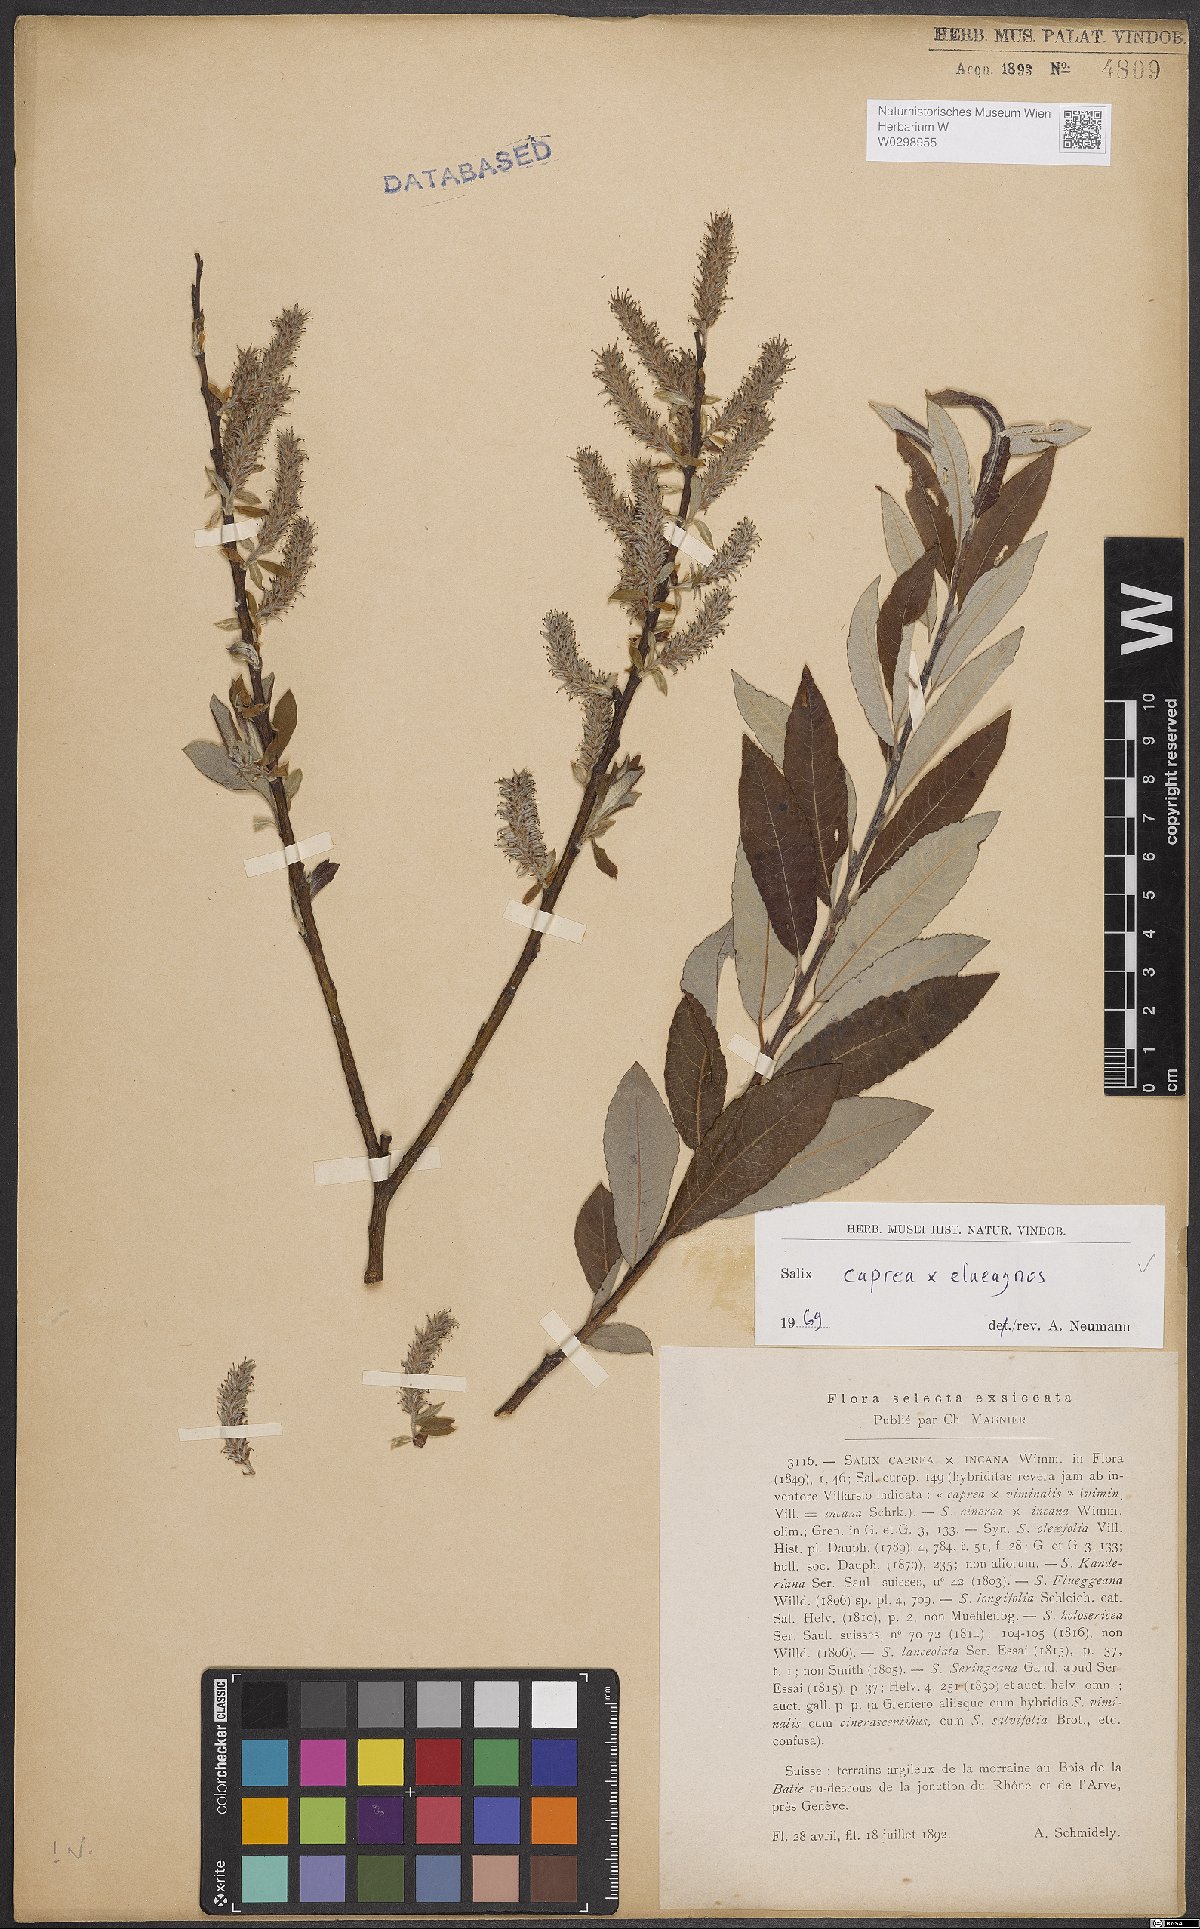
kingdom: Plantae
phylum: Tracheophyta
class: Magnoliopsida
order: Malpighiales
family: Salicaceae
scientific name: Salicaceae
